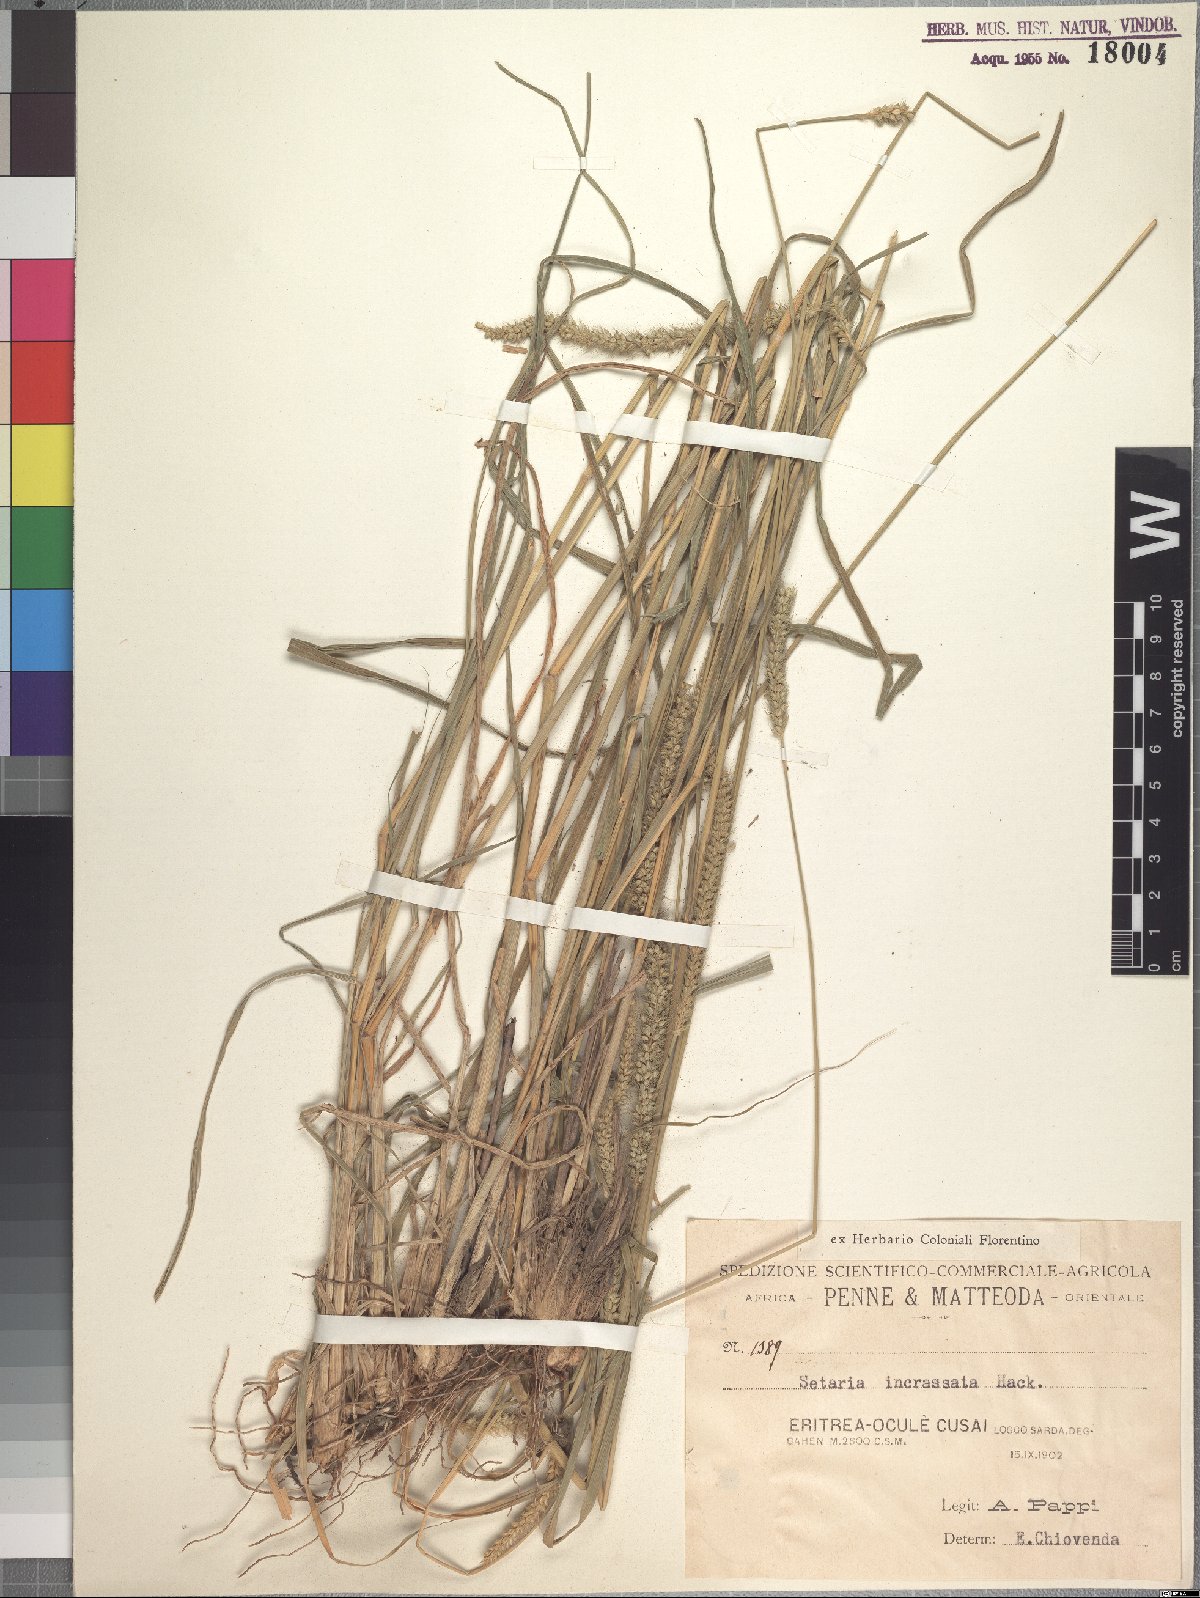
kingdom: Plantae
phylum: Tracheophyta
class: Liliopsida
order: Poales
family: Poaceae
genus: Setaria
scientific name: Setaria incrassata
